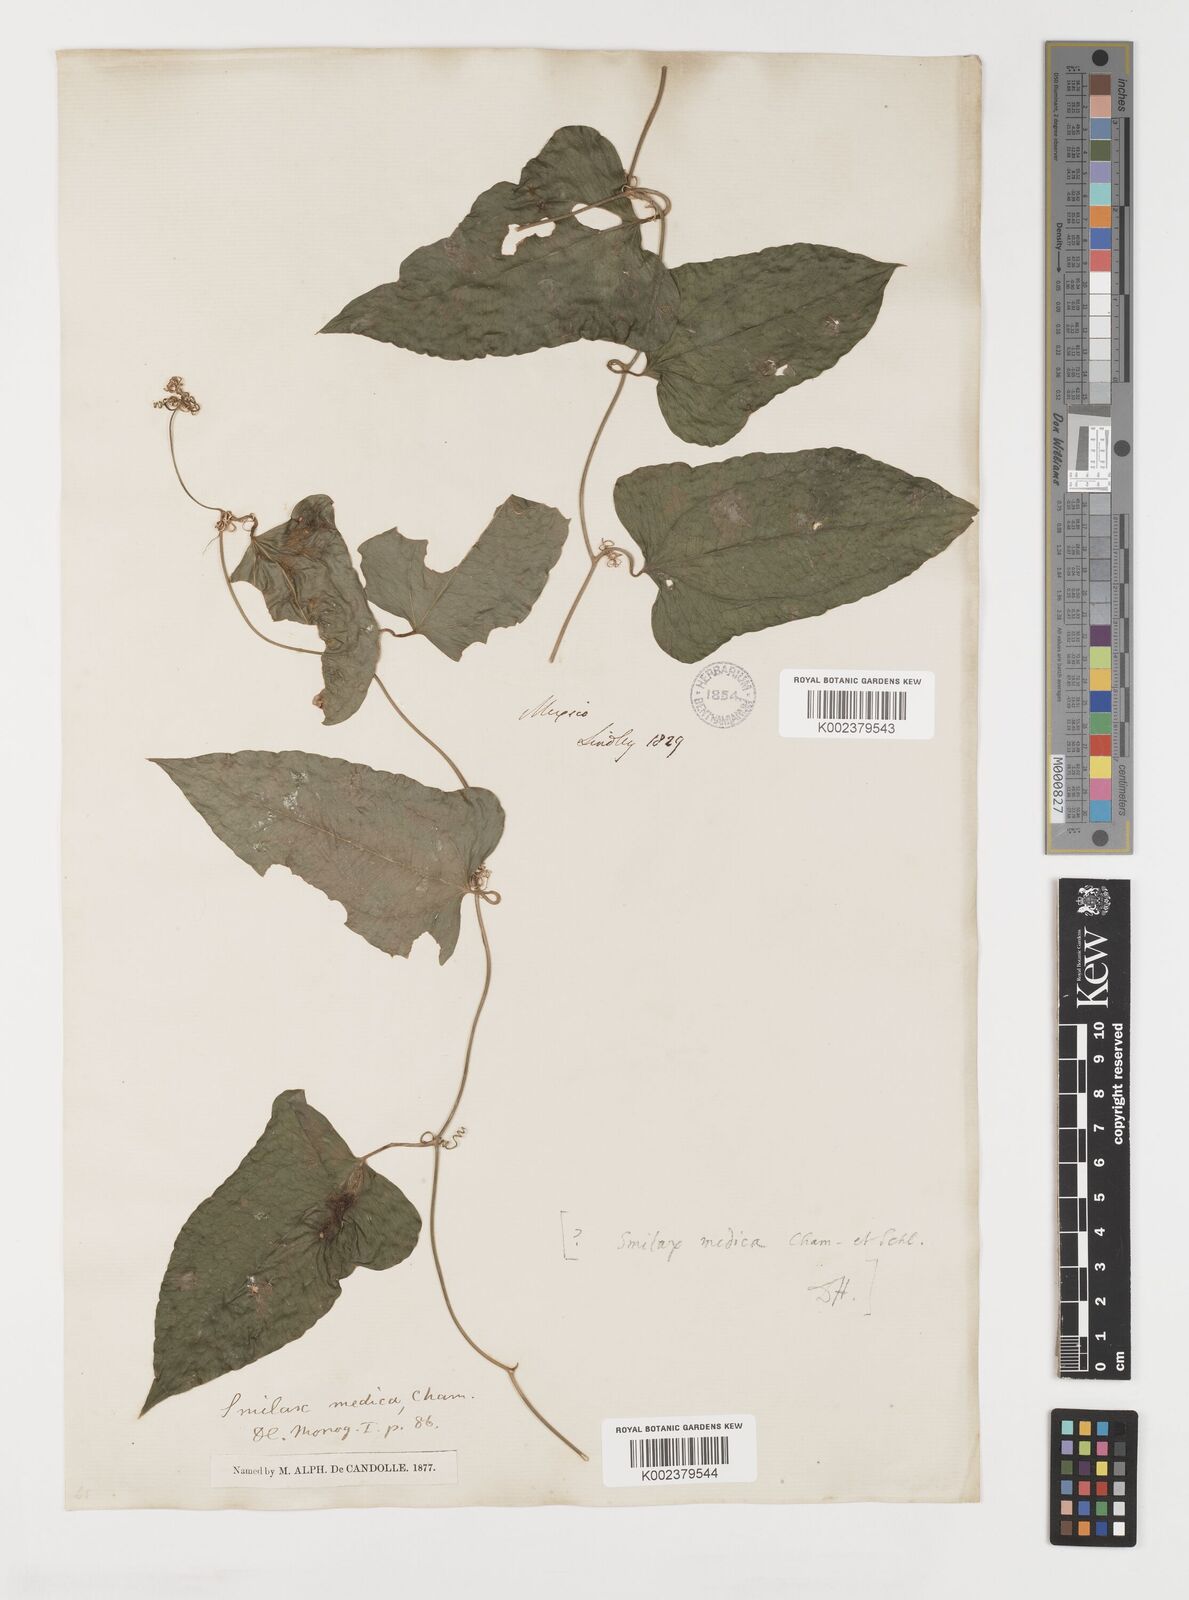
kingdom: Plantae
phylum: Tracheophyta
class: Liliopsida
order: Liliales
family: Smilacaceae
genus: Smilax
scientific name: Smilax aristolochiifolia
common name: Sarsaparilla
